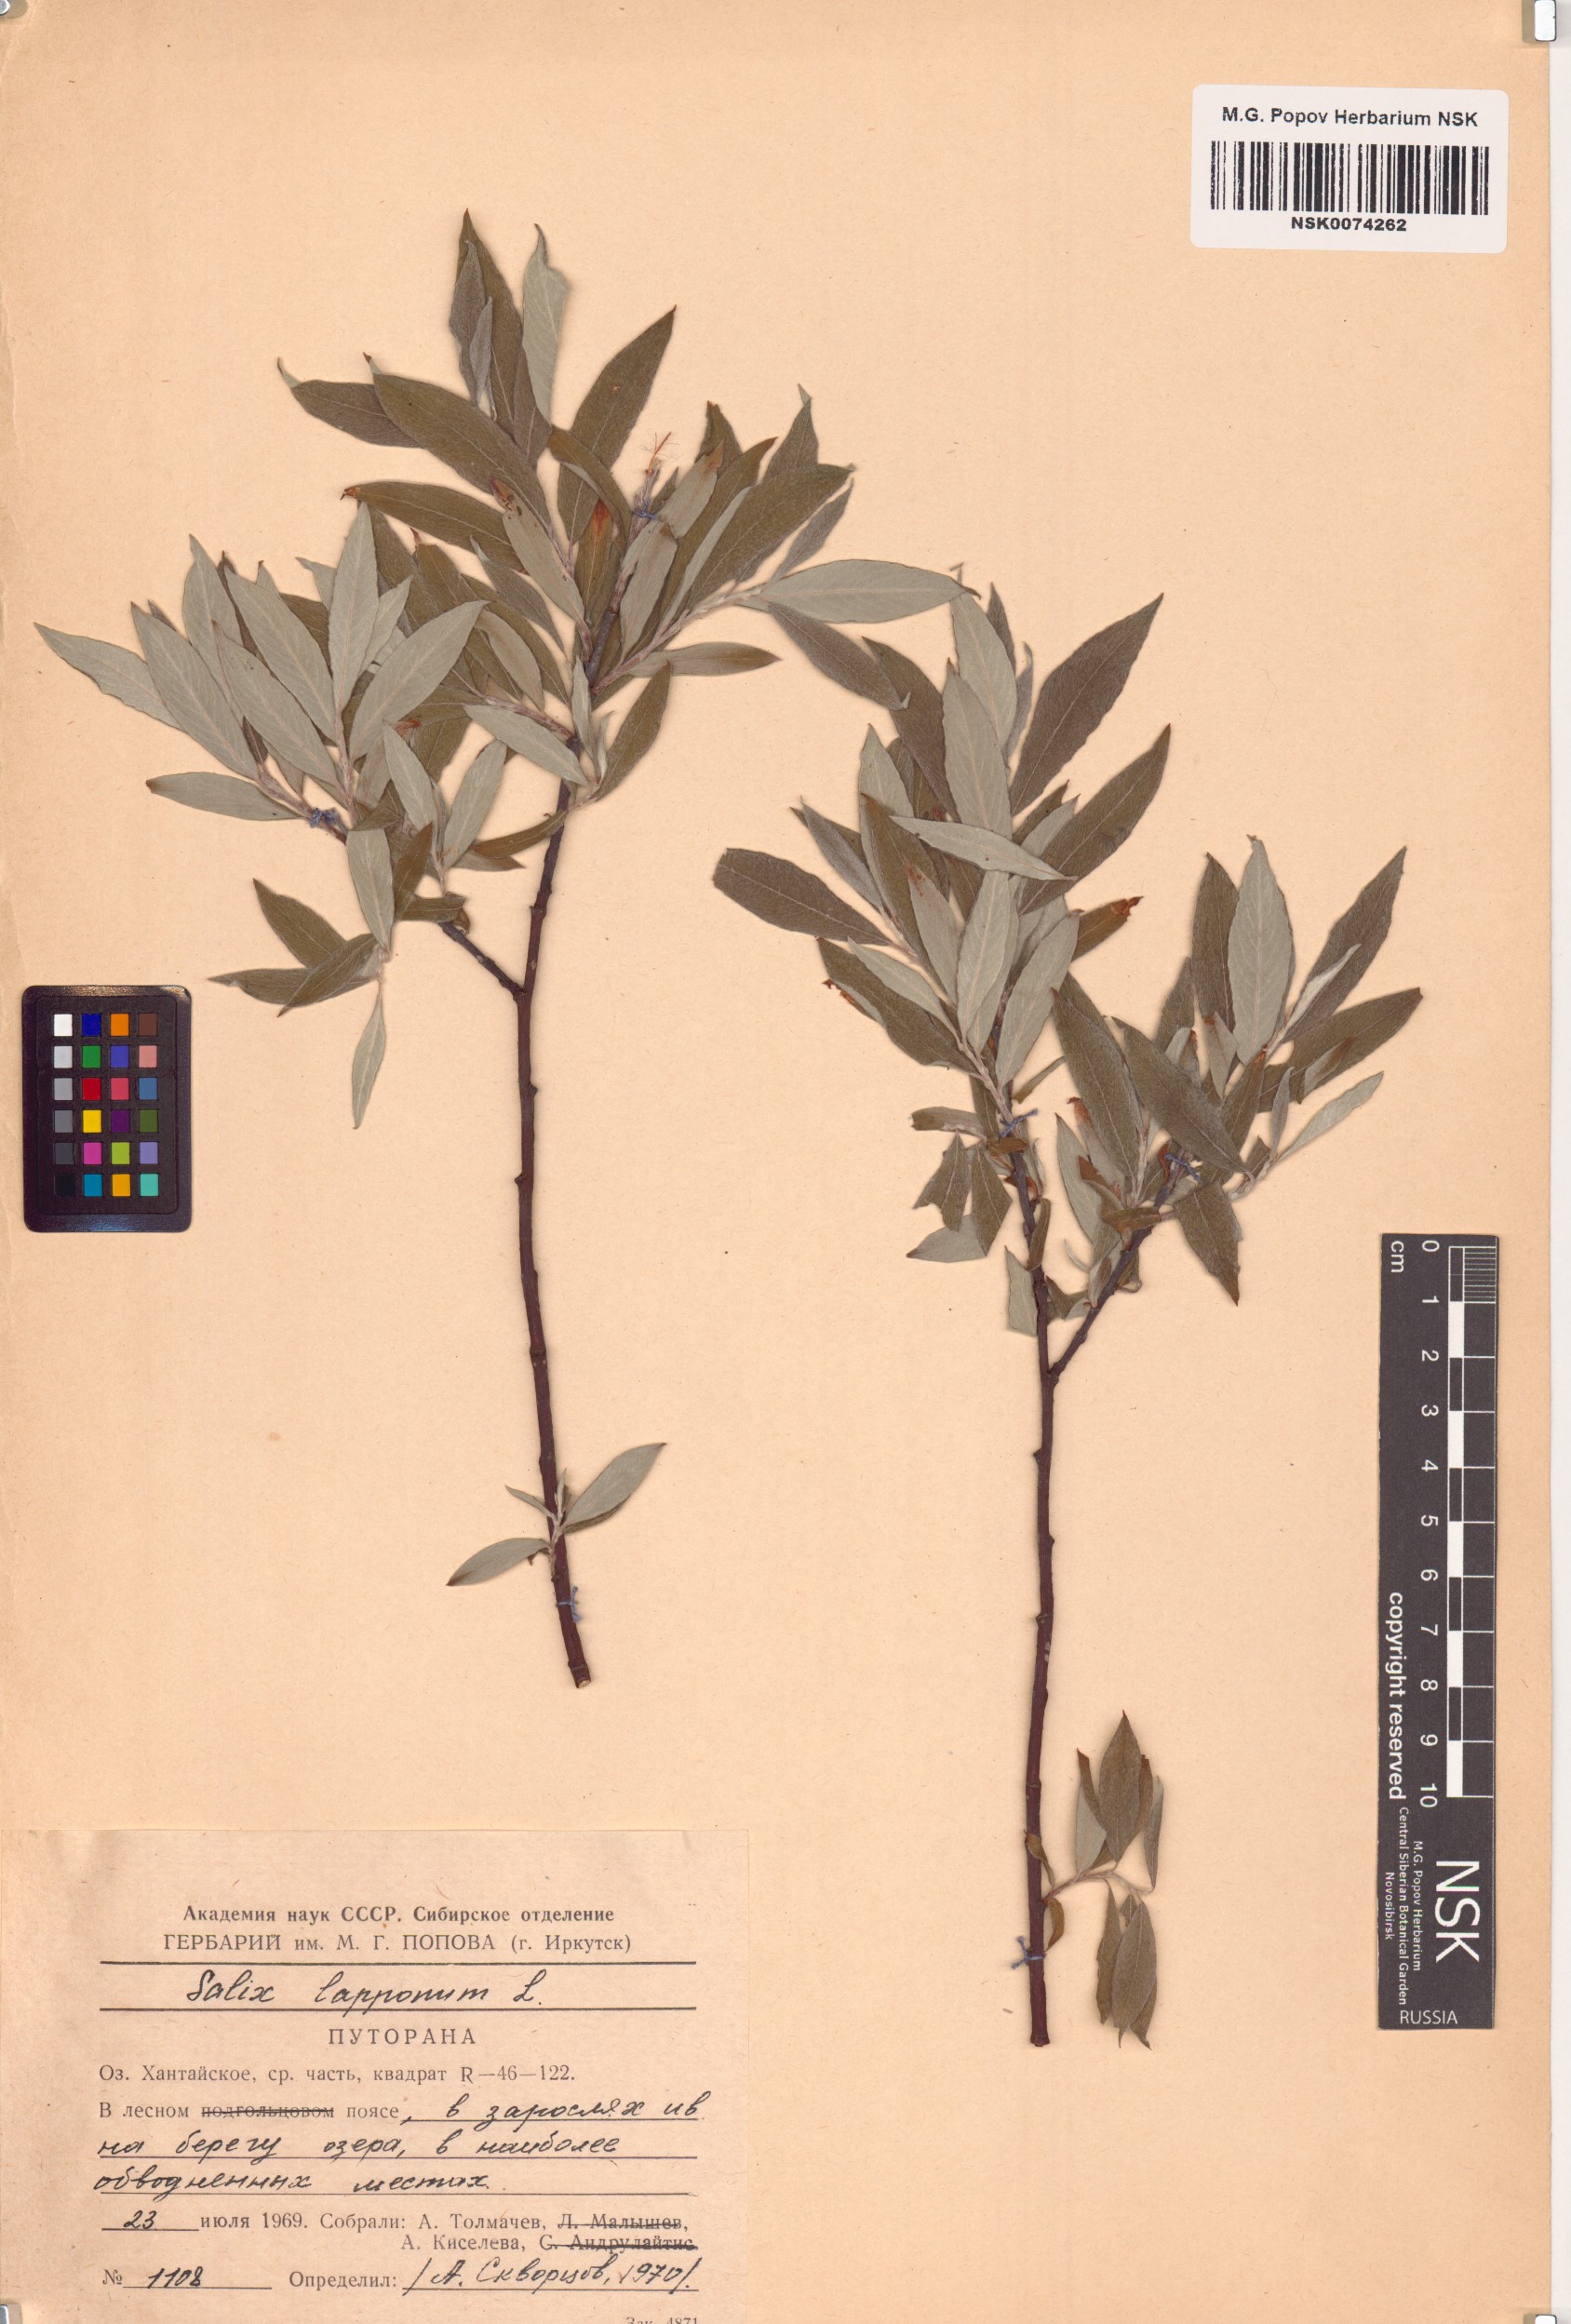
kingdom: Plantae
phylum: Tracheophyta
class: Magnoliopsida
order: Malpighiales
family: Salicaceae
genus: Salix
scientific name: Salix lapponum
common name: Downy willow
